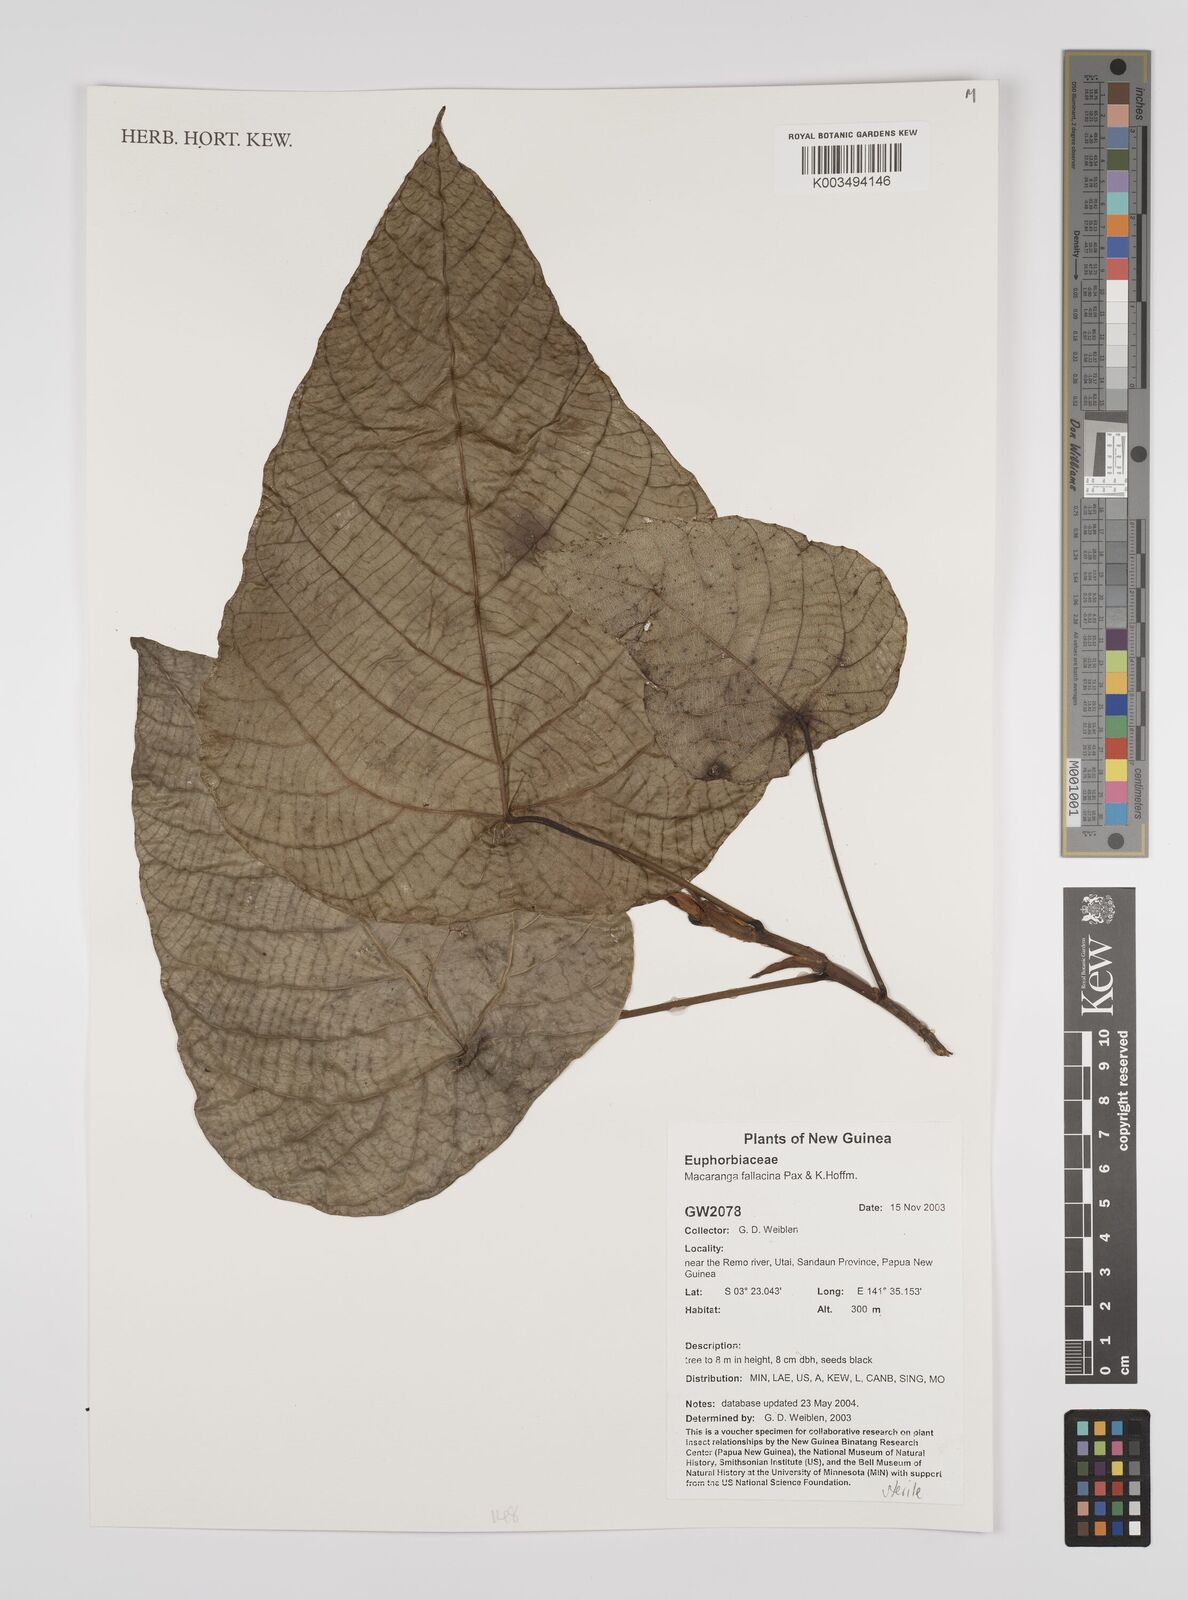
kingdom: Plantae
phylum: Tracheophyta
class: Magnoliopsida
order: Malpighiales
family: Euphorbiaceae
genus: Macaranga
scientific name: Macaranga fallacina
